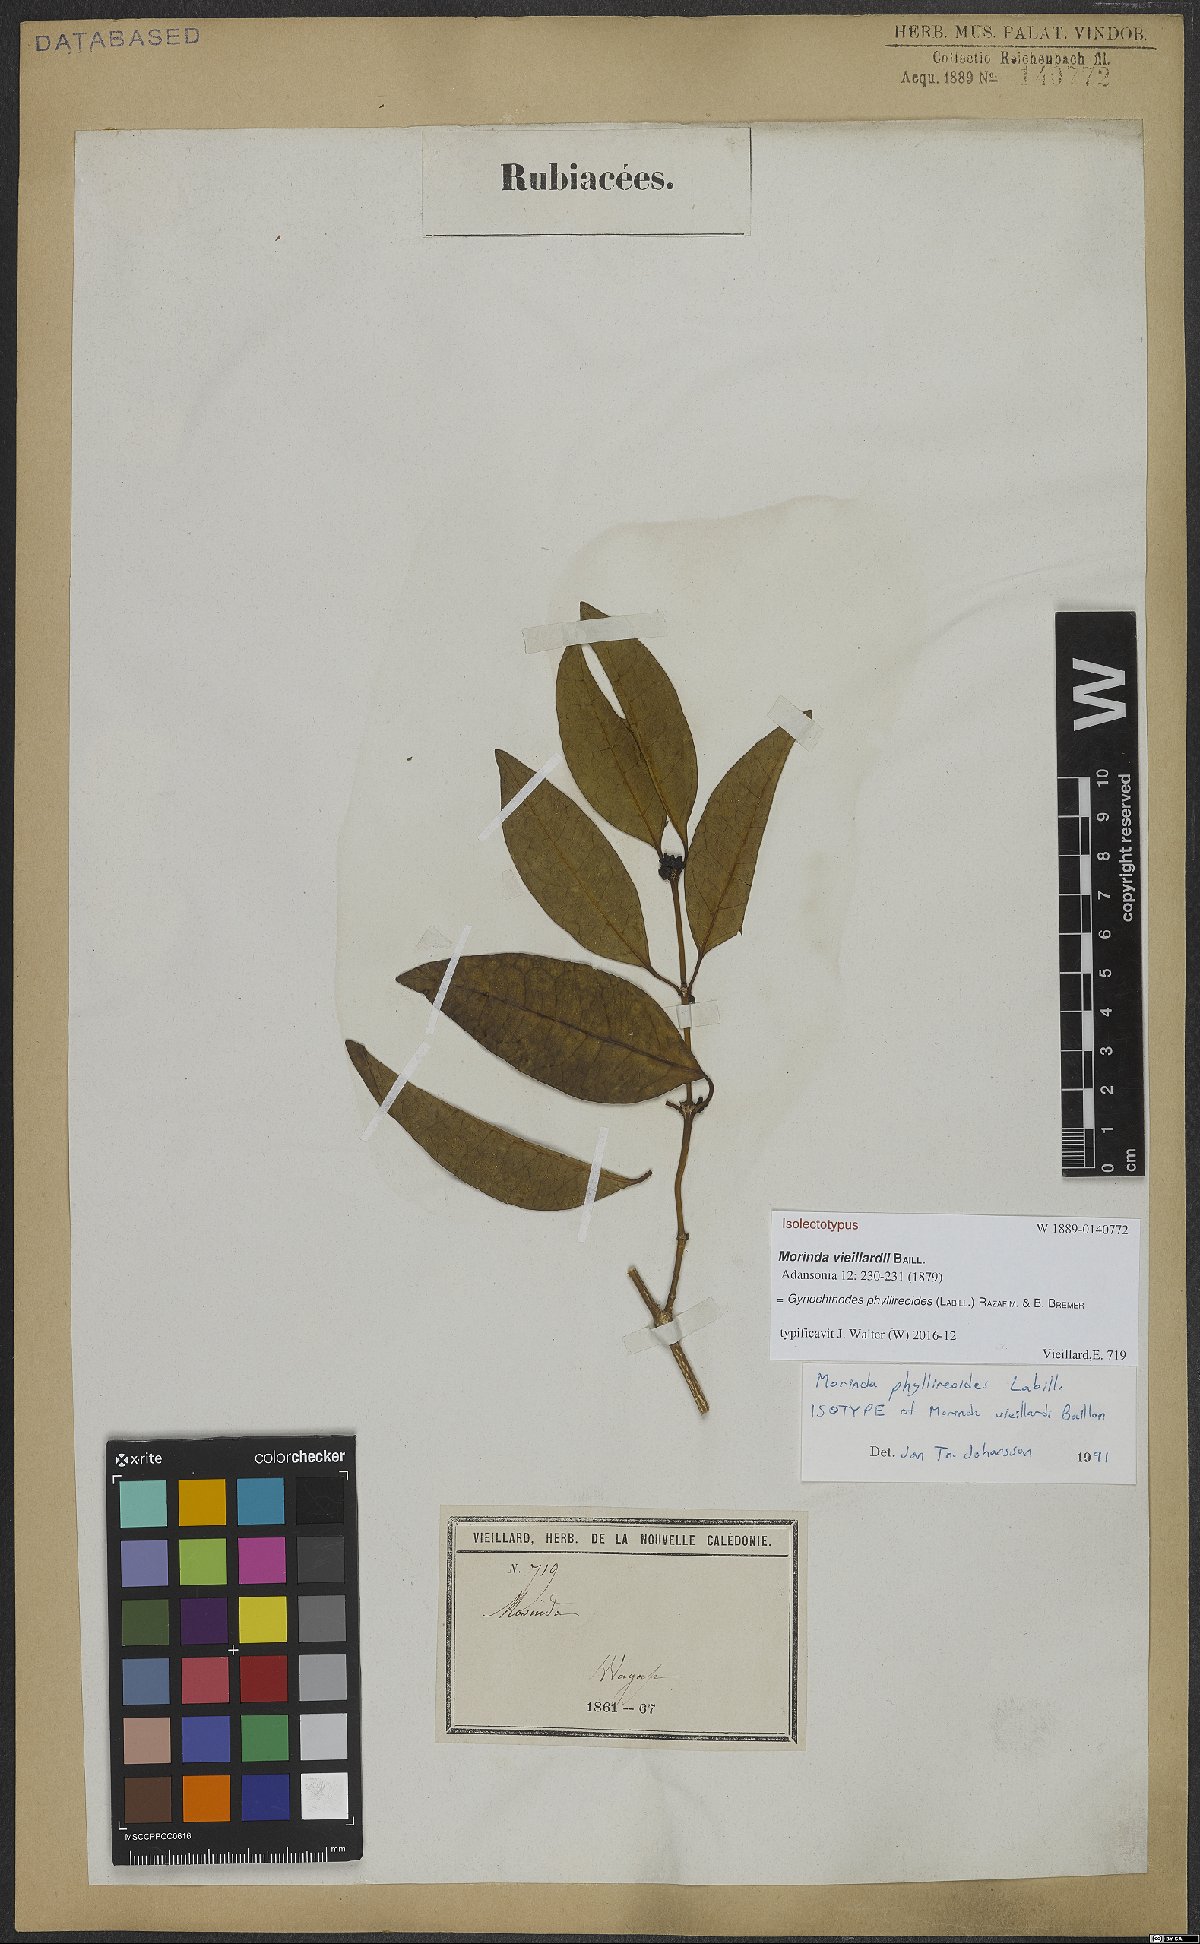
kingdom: Plantae
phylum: Tracheophyta
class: Magnoliopsida
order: Gentianales
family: Rubiaceae
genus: Gynochthodes
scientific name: Gynochthodes phyllireoides
